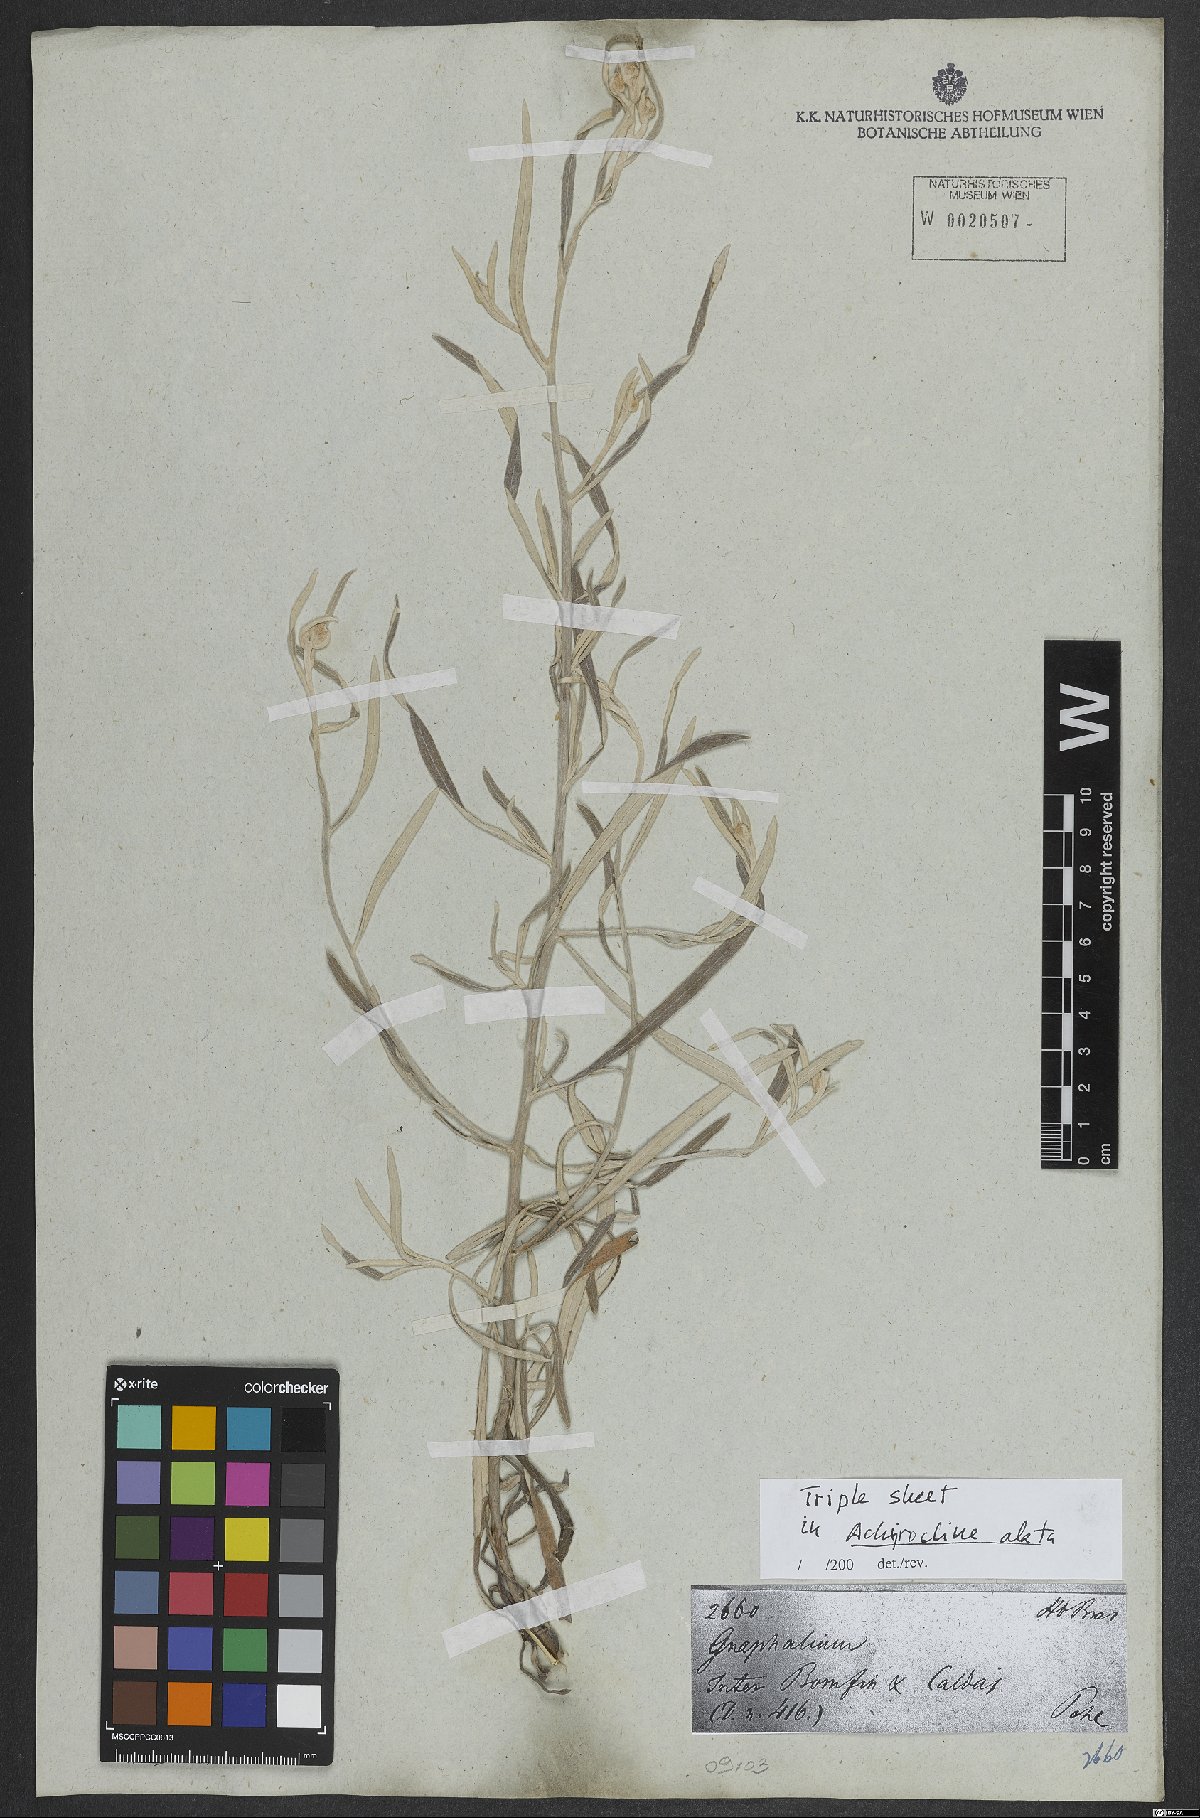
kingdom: Plantae
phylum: Tracheophyta
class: Magnoliopsida
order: Asterales
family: Asteraceae
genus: Achyrocline
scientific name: Achyrocline alata
